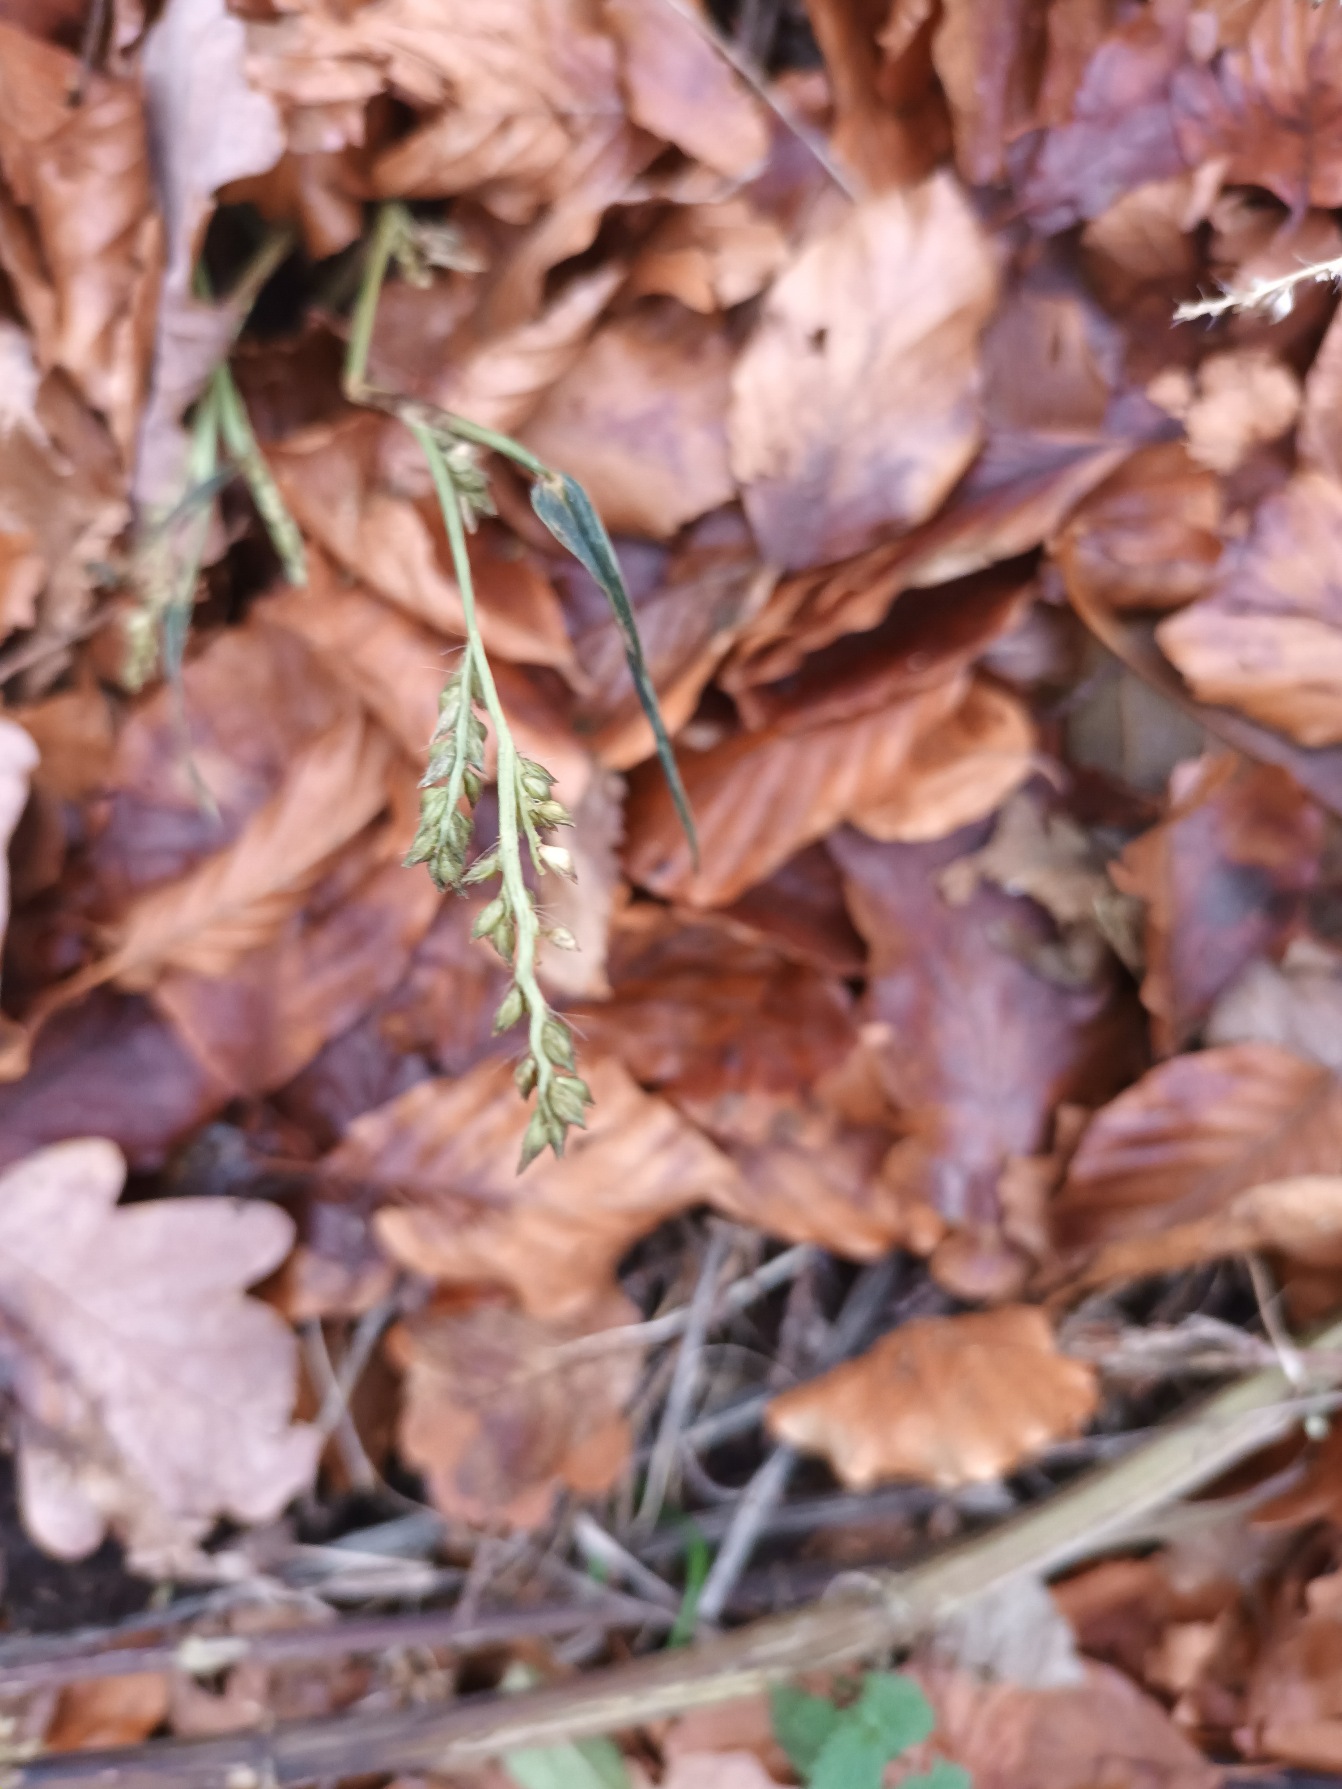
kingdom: Plantae
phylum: Tracheophyta
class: Liliopsida
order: Poales
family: Poaceae
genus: Echinochloa
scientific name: Echinochloa crus-galli
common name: Almindelig hanespore
